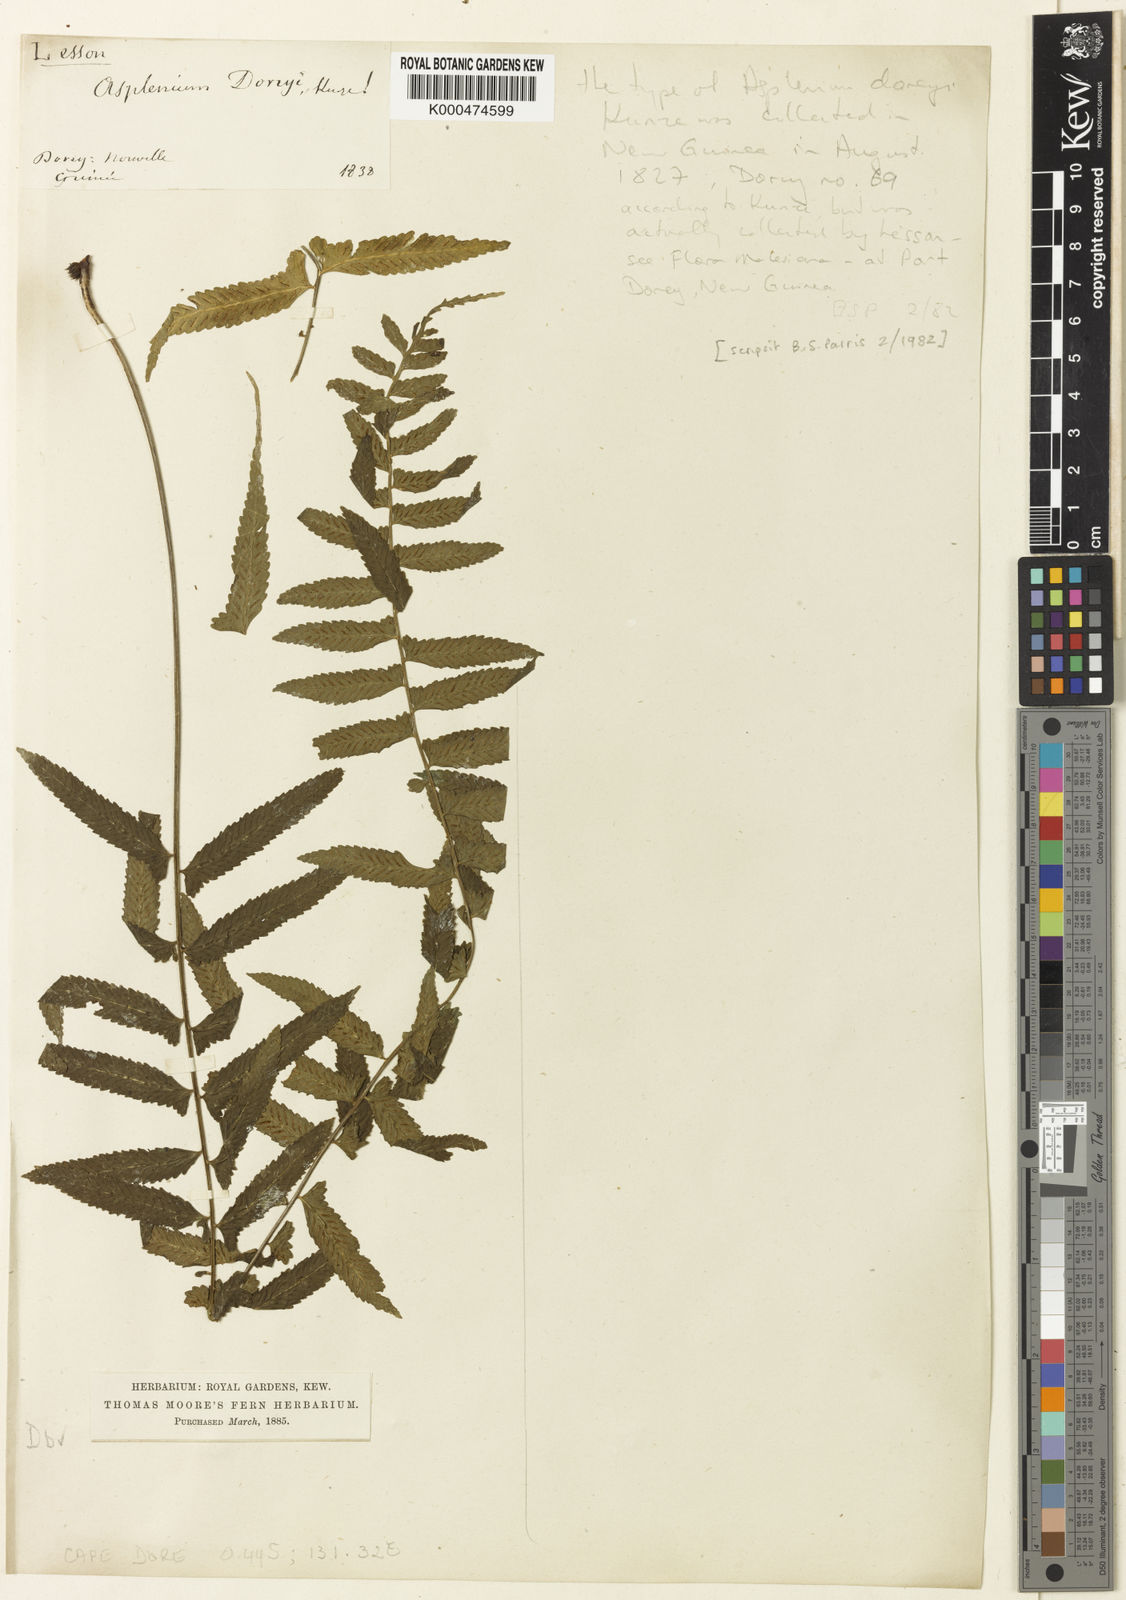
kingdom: Plantae
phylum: Tracheophyta
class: Polypodiopsida
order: Polypodiales
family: Aspleniaceae
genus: Asplenium
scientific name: Asplenium tenerum
